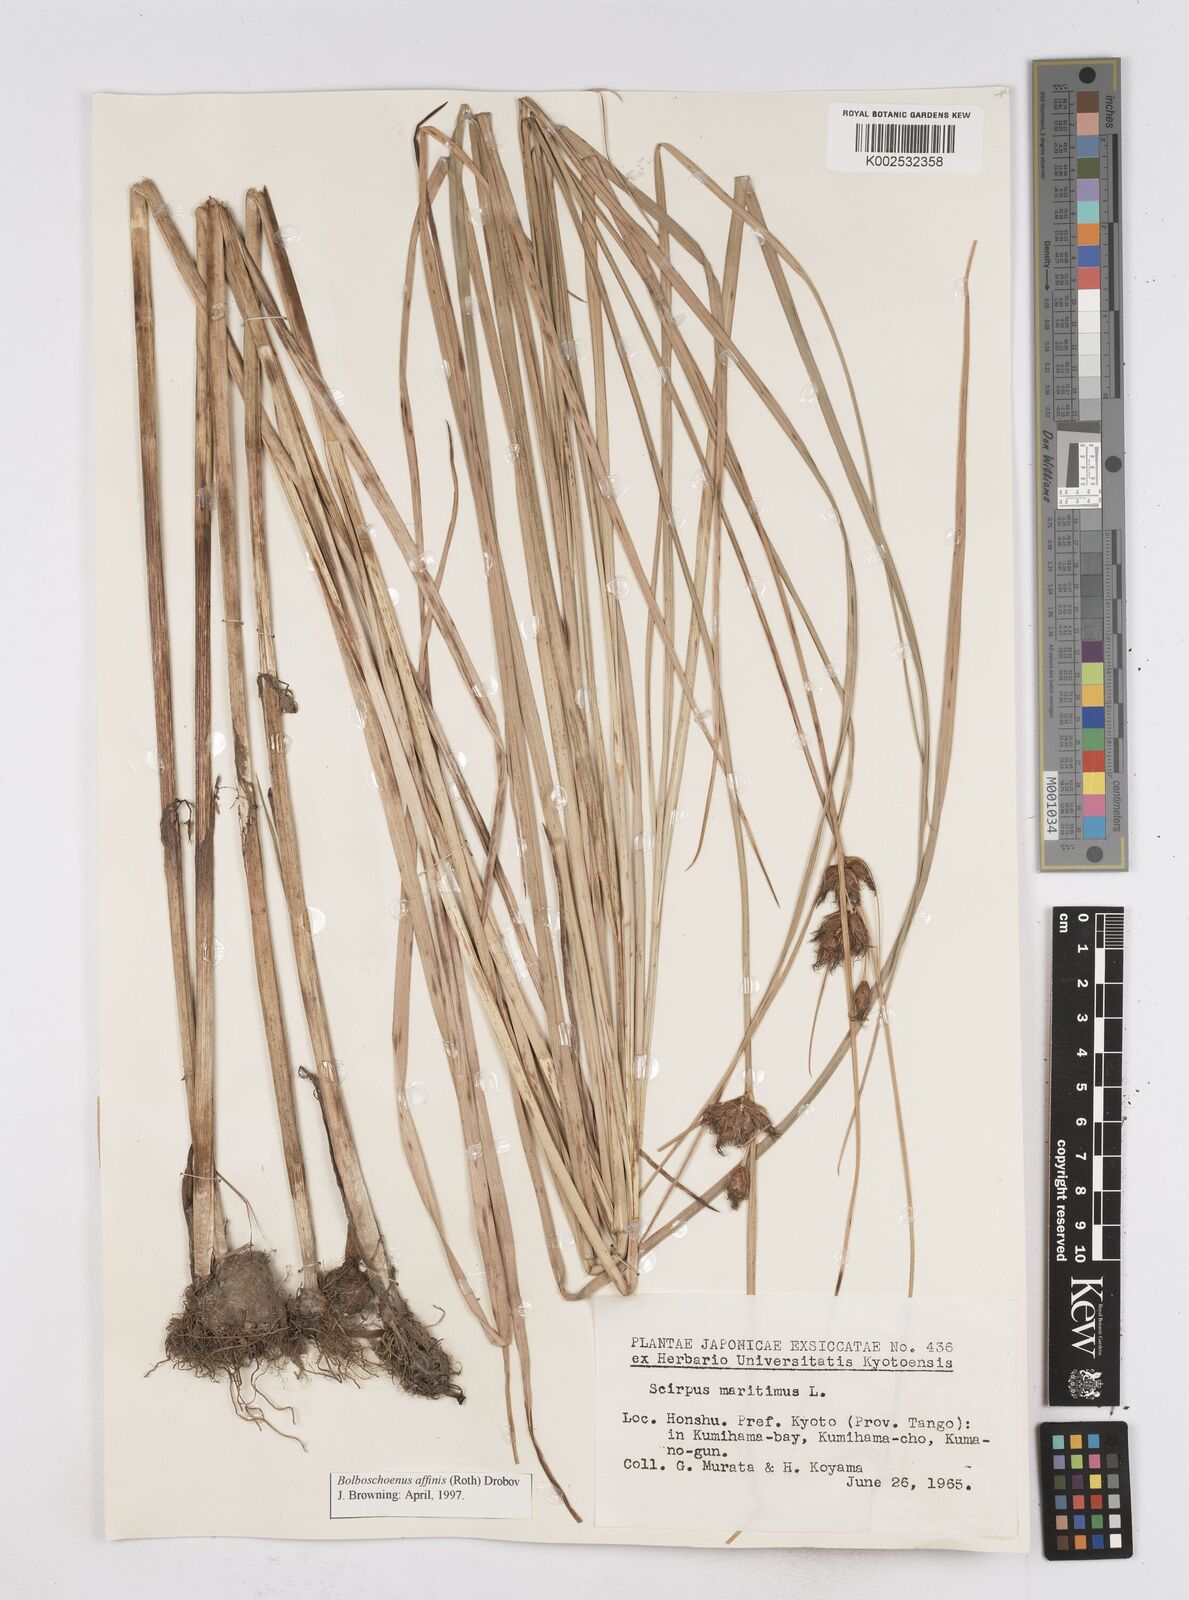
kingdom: Plantae
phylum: Tracheophyta
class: Liliopsida
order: Poales
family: Cyperaceae
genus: Bolboschoenus
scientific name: Bolboschoenus maritimus
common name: Sea club-rush
